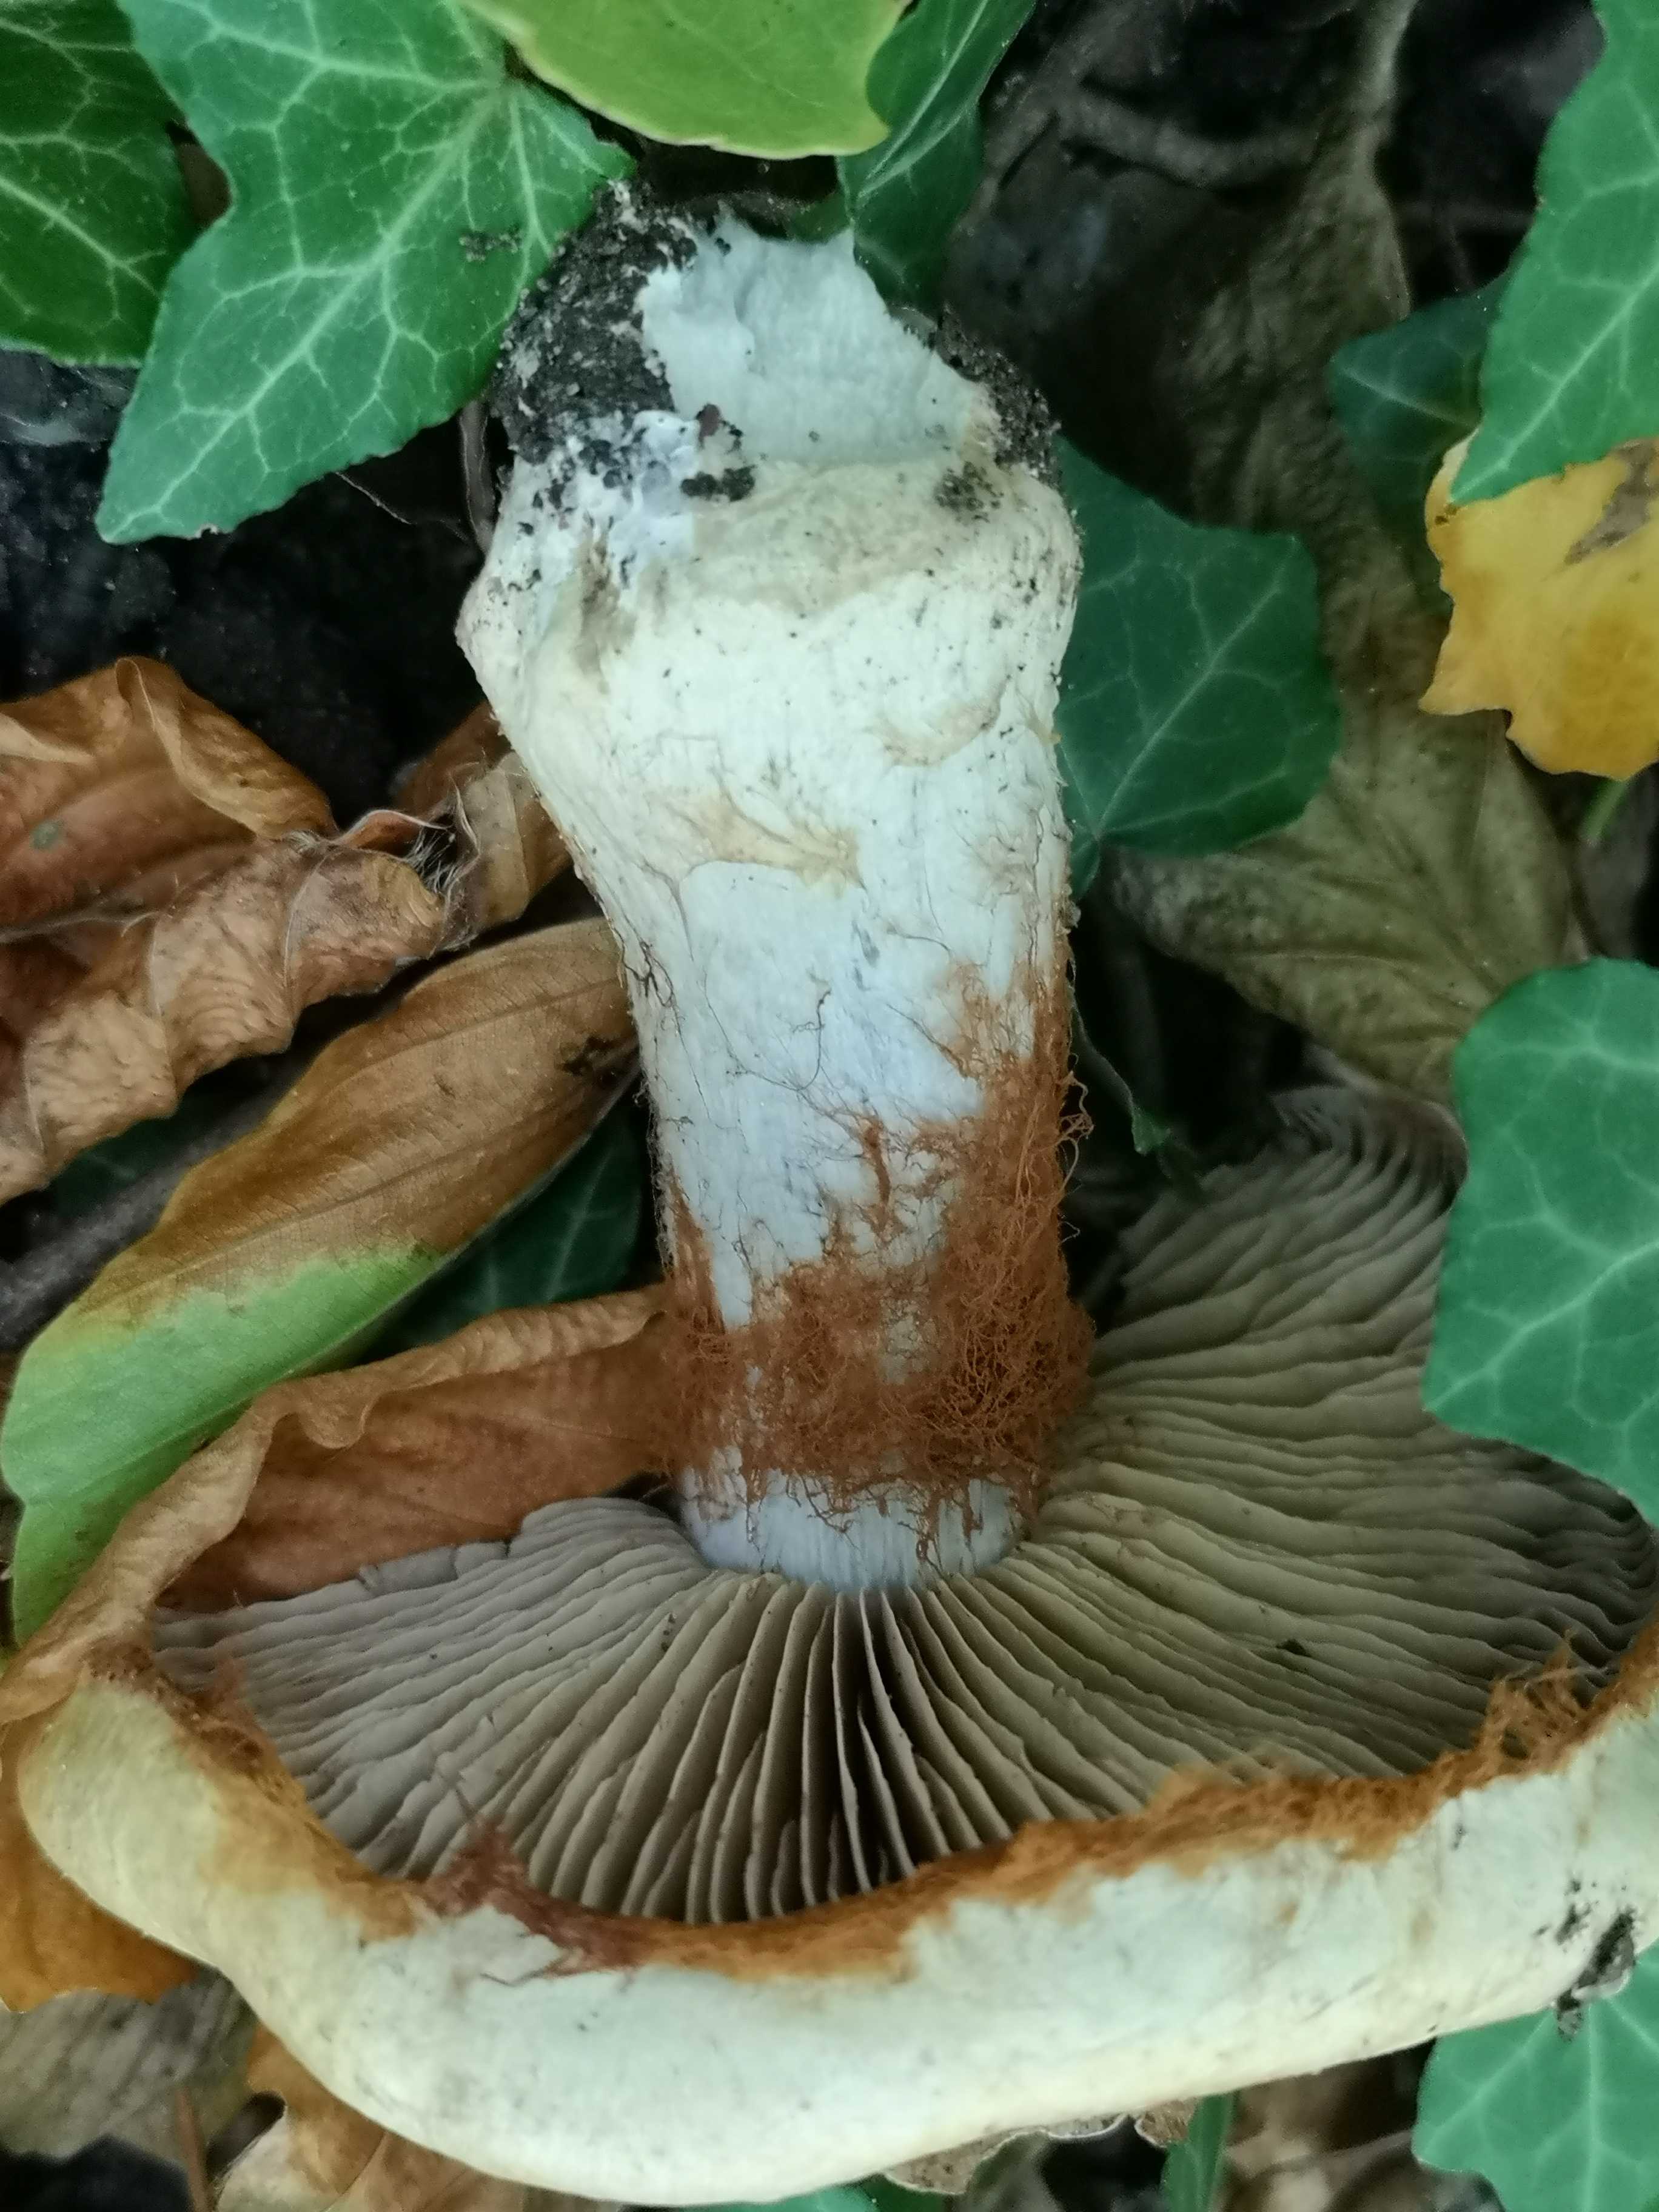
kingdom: Fungi
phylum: Basidiomycota
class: Agaricomycetes
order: Agaricales
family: Cortinariaceae
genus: Cortinarius
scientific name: Cortinarius anserinus
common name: bøge-slørhat
